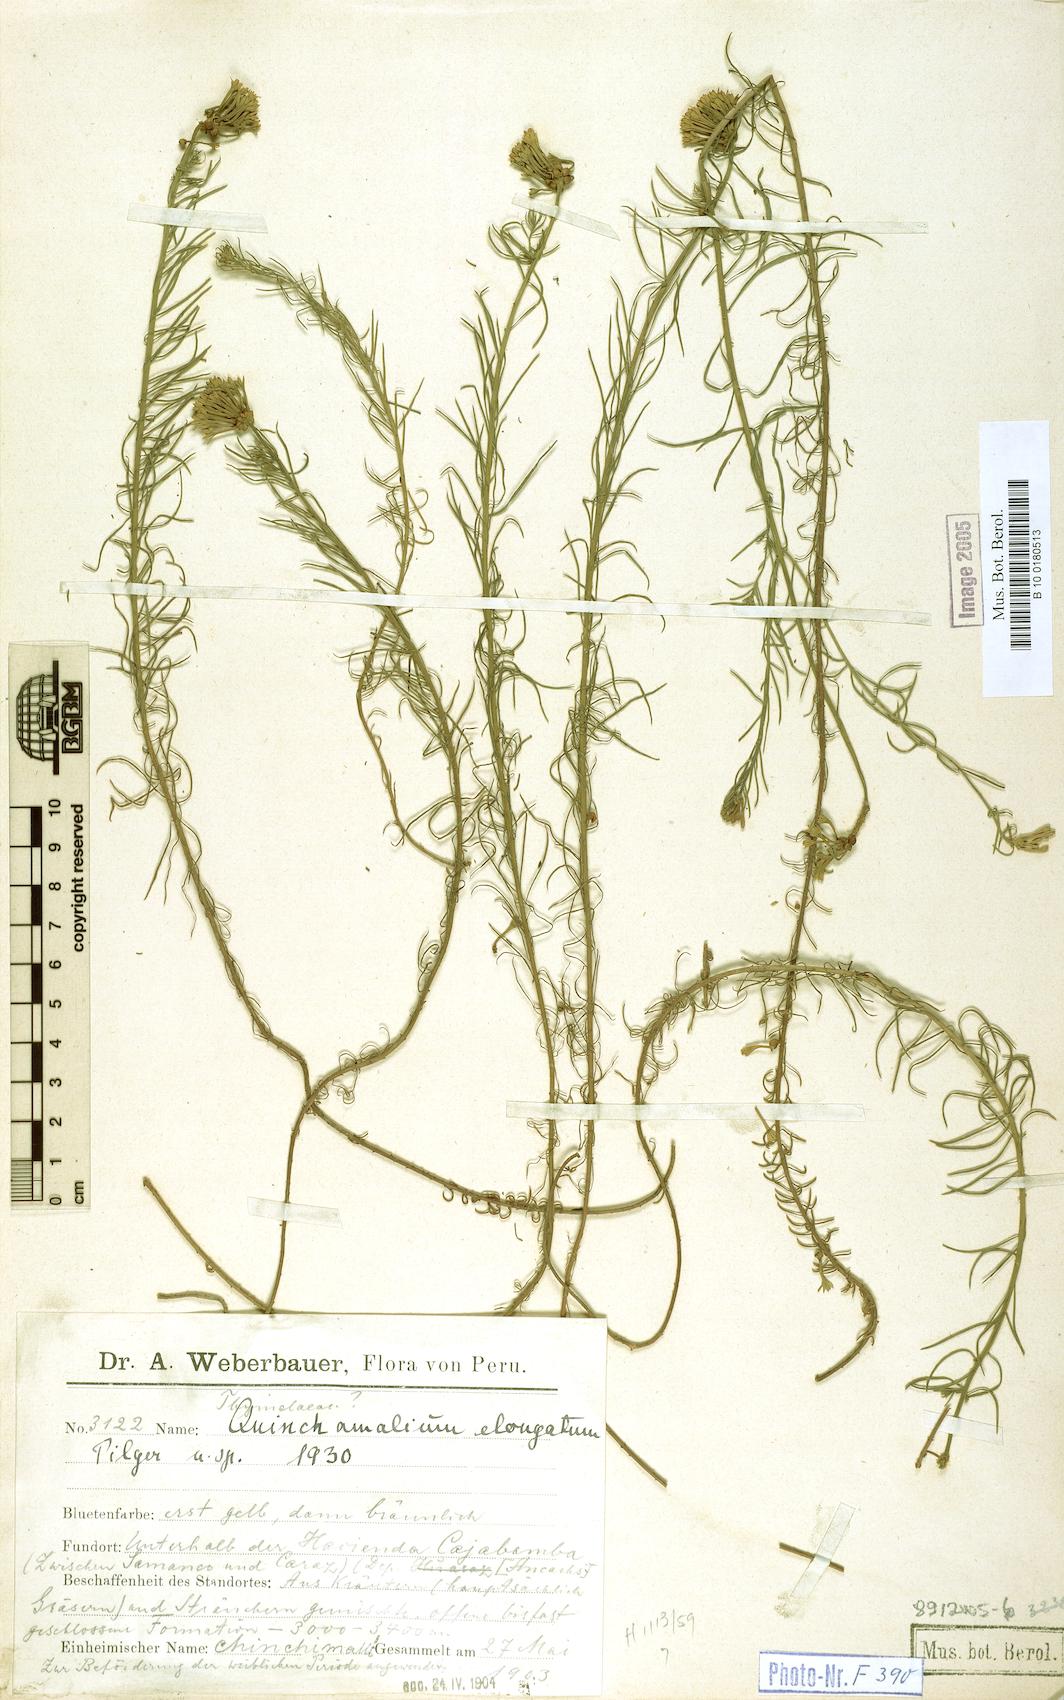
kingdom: Plantae
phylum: Tracheophyta
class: Magnoliopsida
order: Santalales
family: Schoepfiaceae
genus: Quinchamalium
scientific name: Quinchamalium chilense
